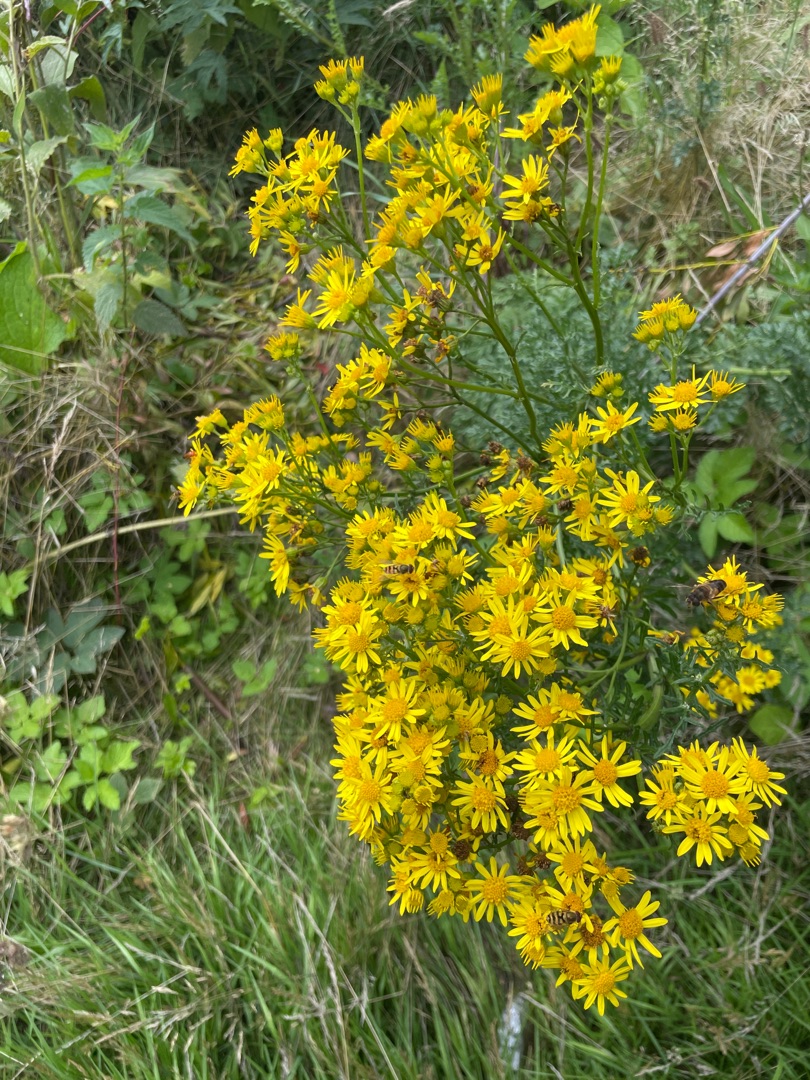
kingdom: Plantae
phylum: Tracheophyta
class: Magnoliopsida
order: Asterales
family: Asteraceae
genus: Jacobaea
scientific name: Jacobaea vulgaris
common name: Eng-brandbæger
